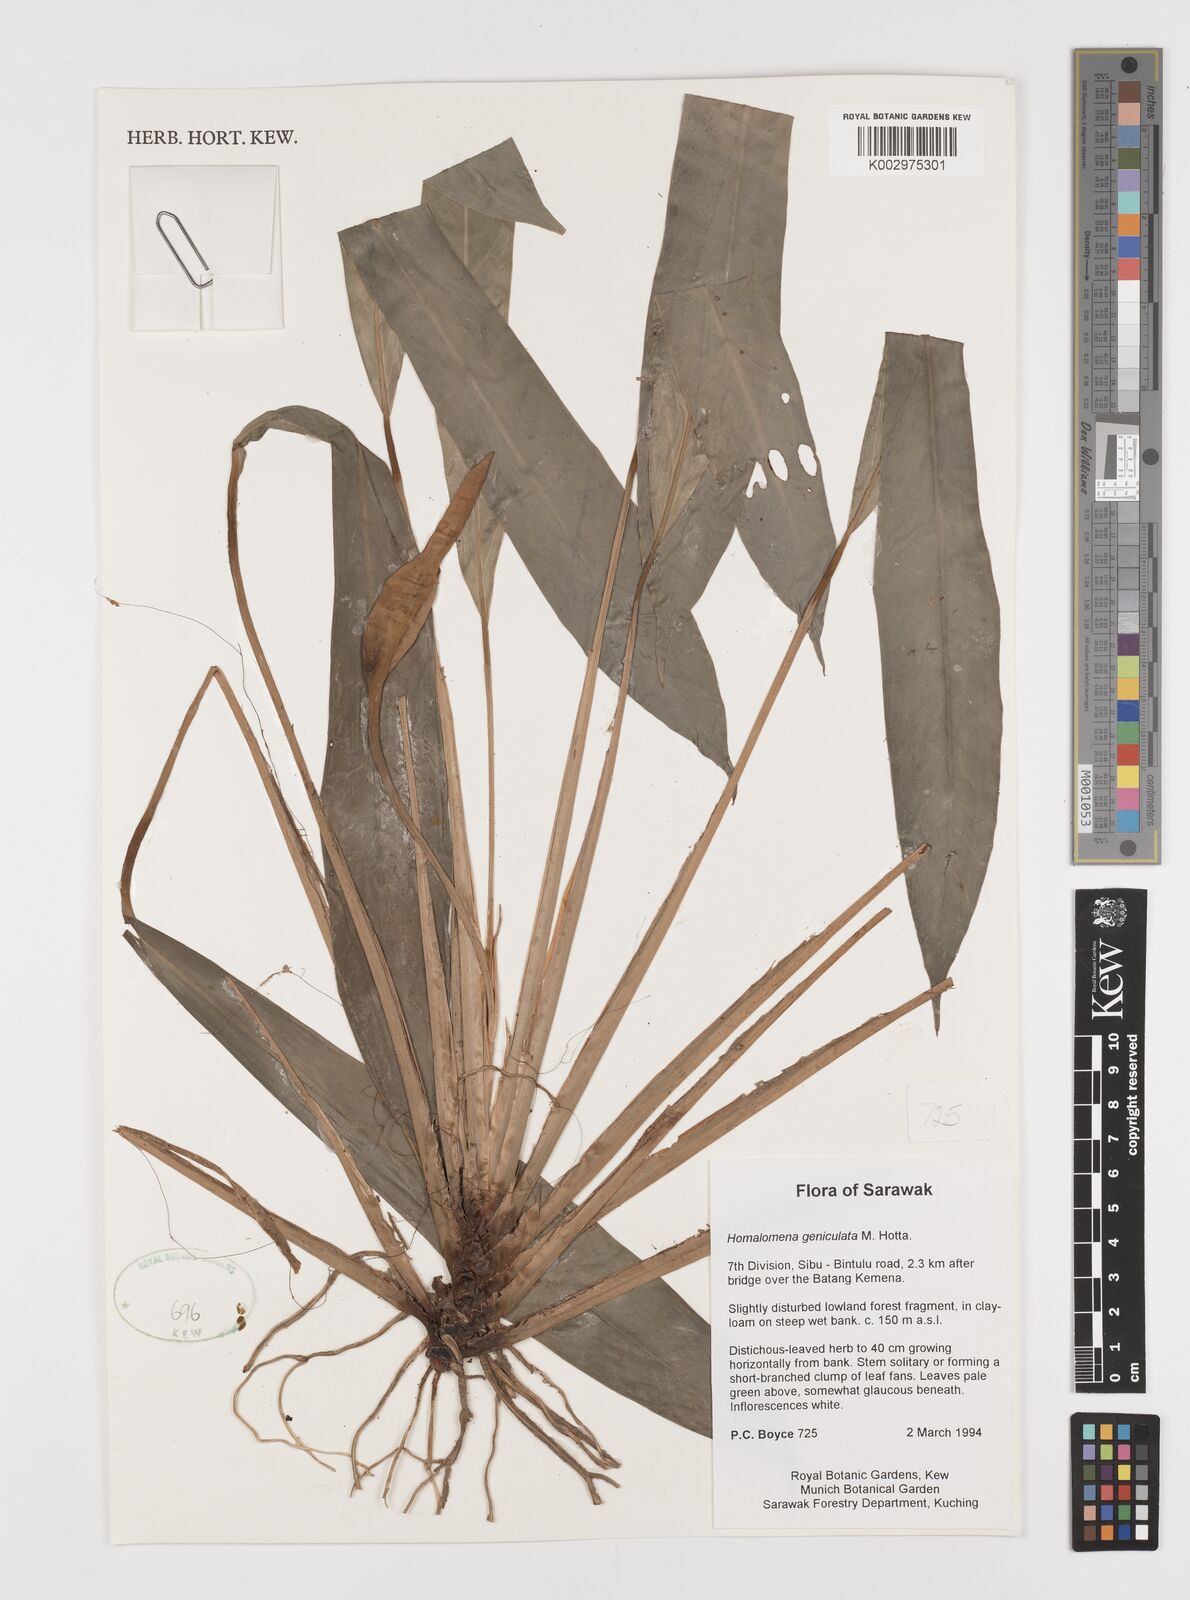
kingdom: Plantae
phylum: Tracheophyta
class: Liliopsida
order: Alismatales
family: Araceae
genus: Homalomena
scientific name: Homalomena punctulata
